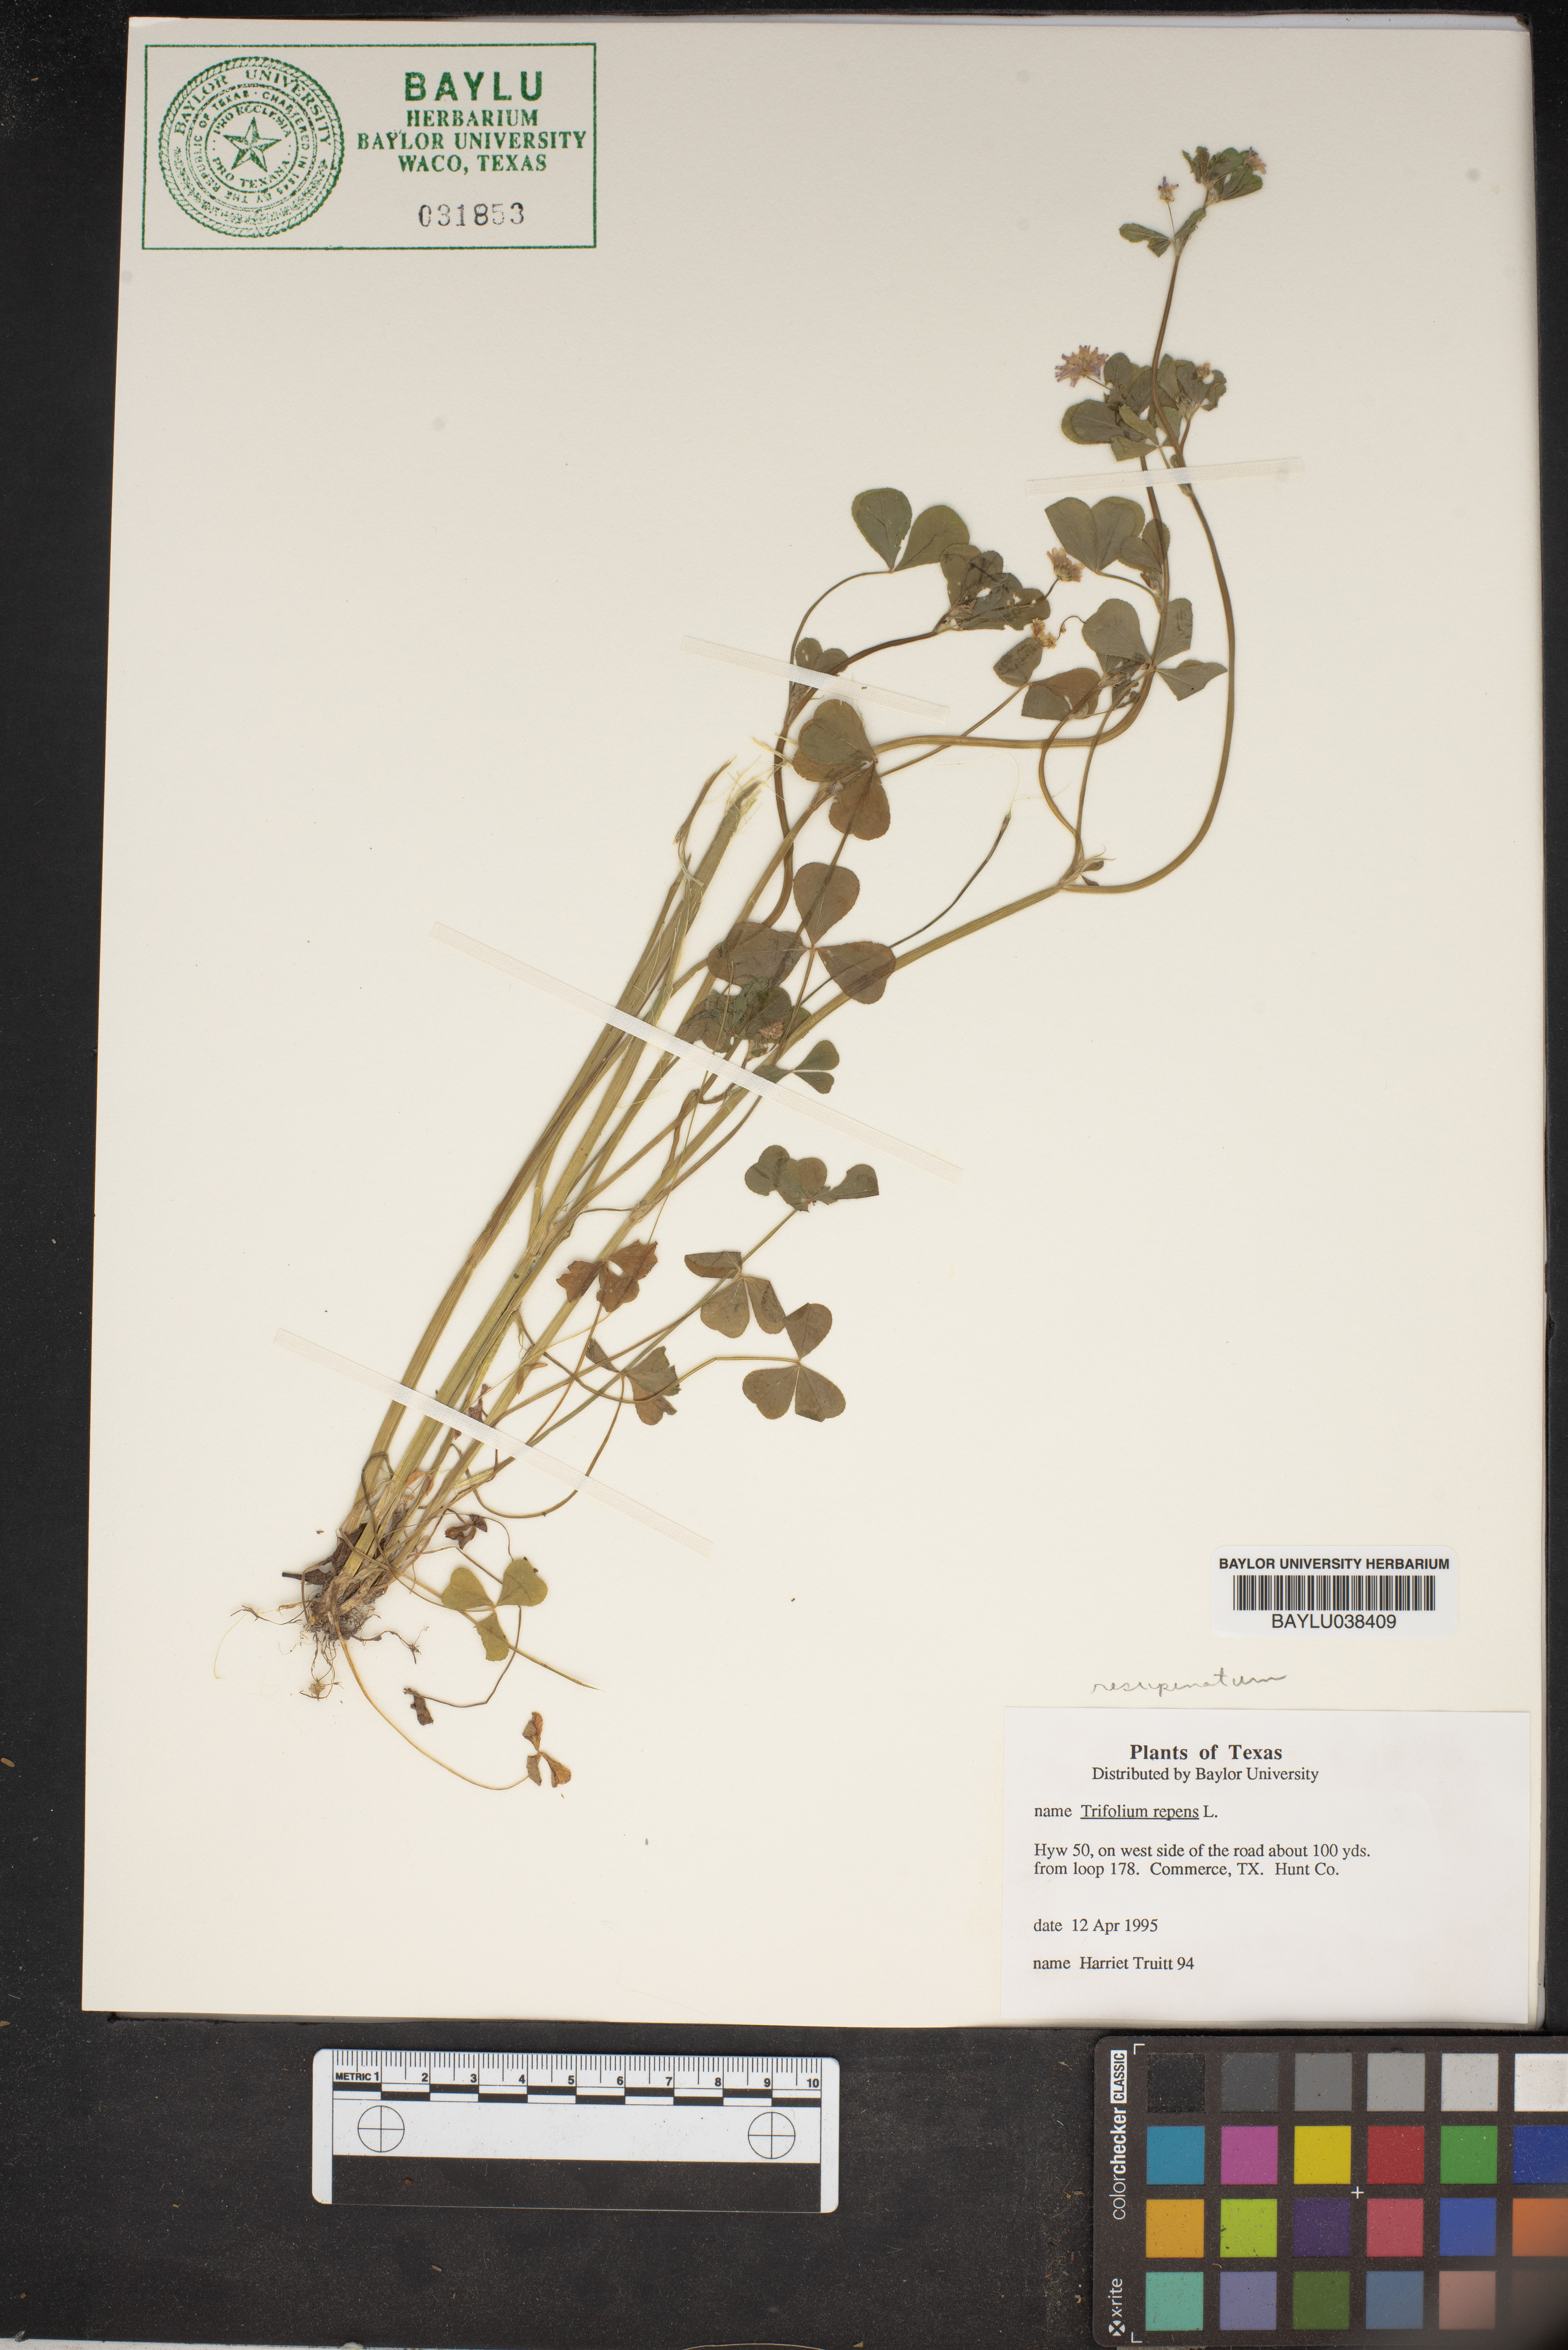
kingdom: Plantae
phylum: Tracheophyta
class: Magnoliopsida
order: Fabales
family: Fabaceae
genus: Trifolium
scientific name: Trifolium repens
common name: White clover
